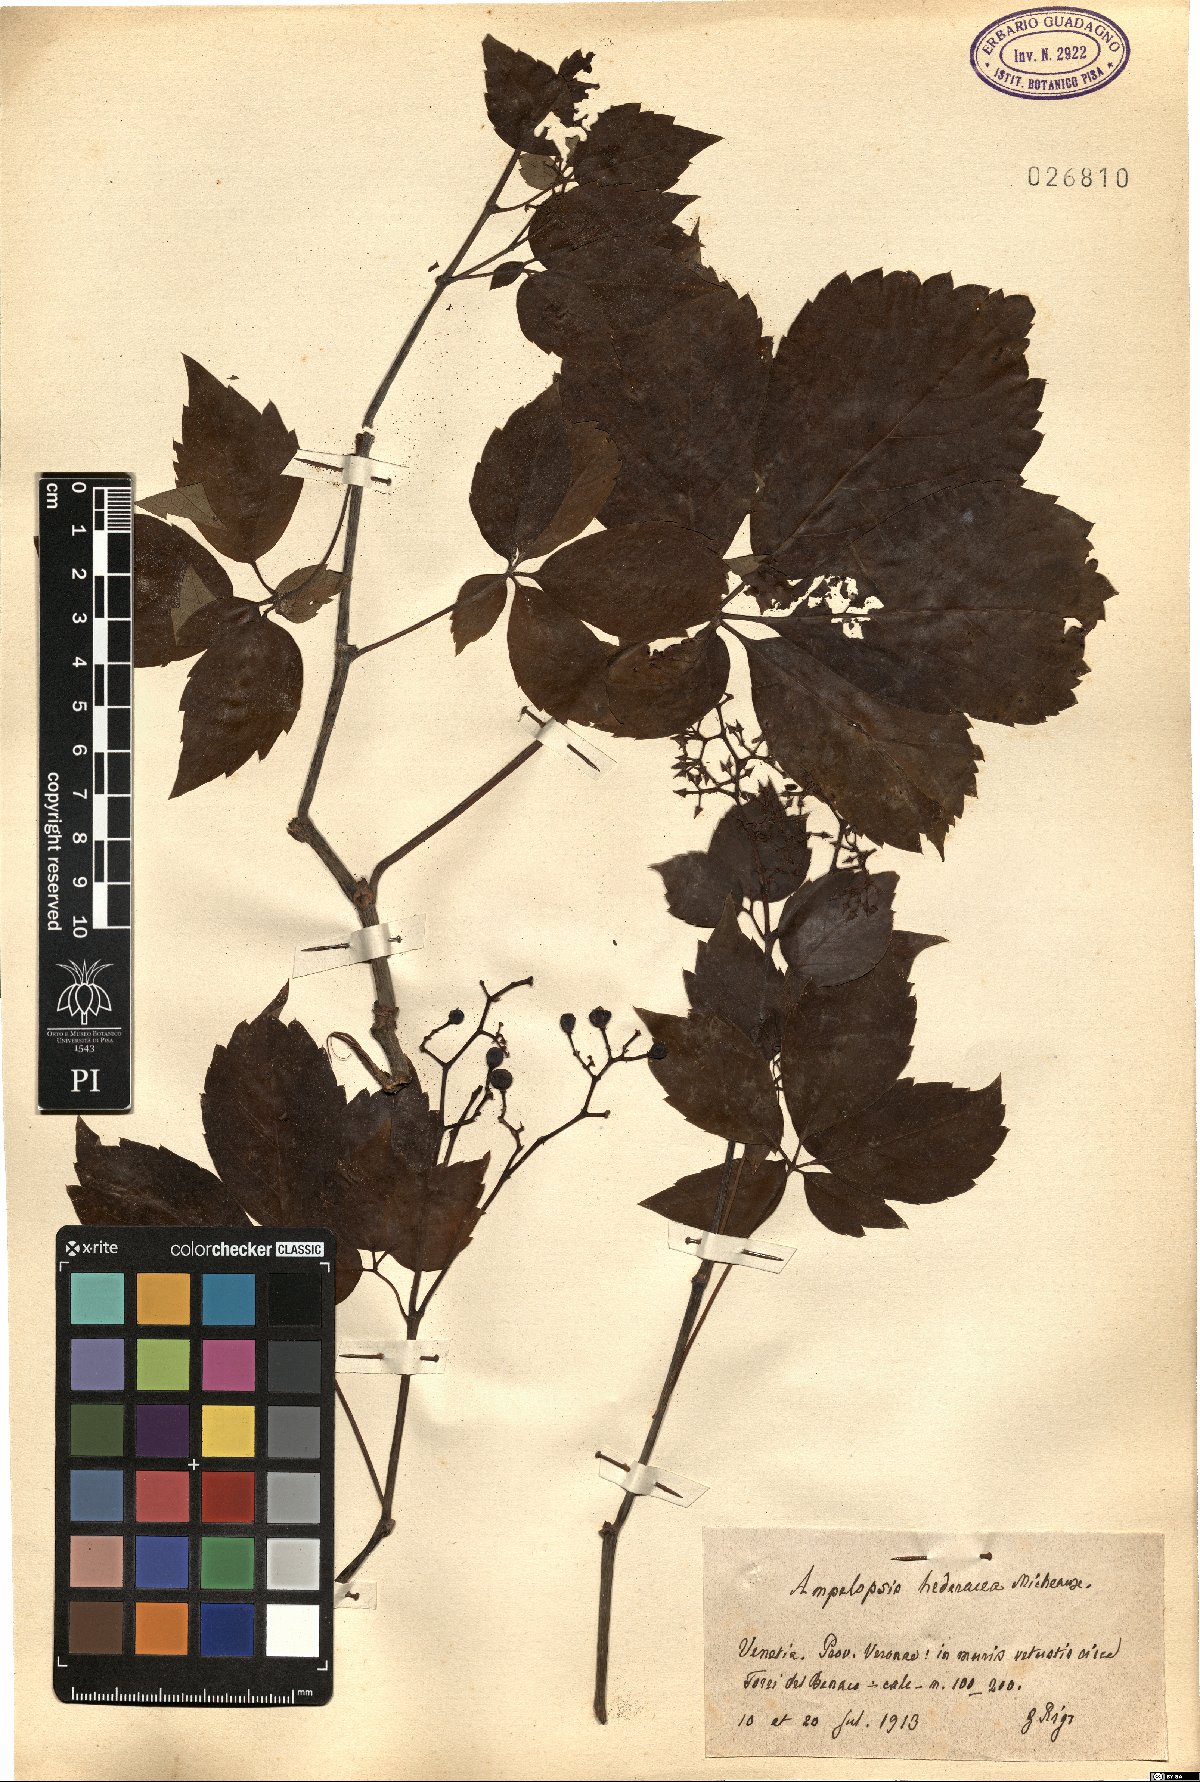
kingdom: Plantae
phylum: Tracheophyta
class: Magnoliopsida
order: Vitales
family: Vitaceae
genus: Parthenocissus
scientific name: Parthenocissus quinquefolia
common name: Virginia-creeper
